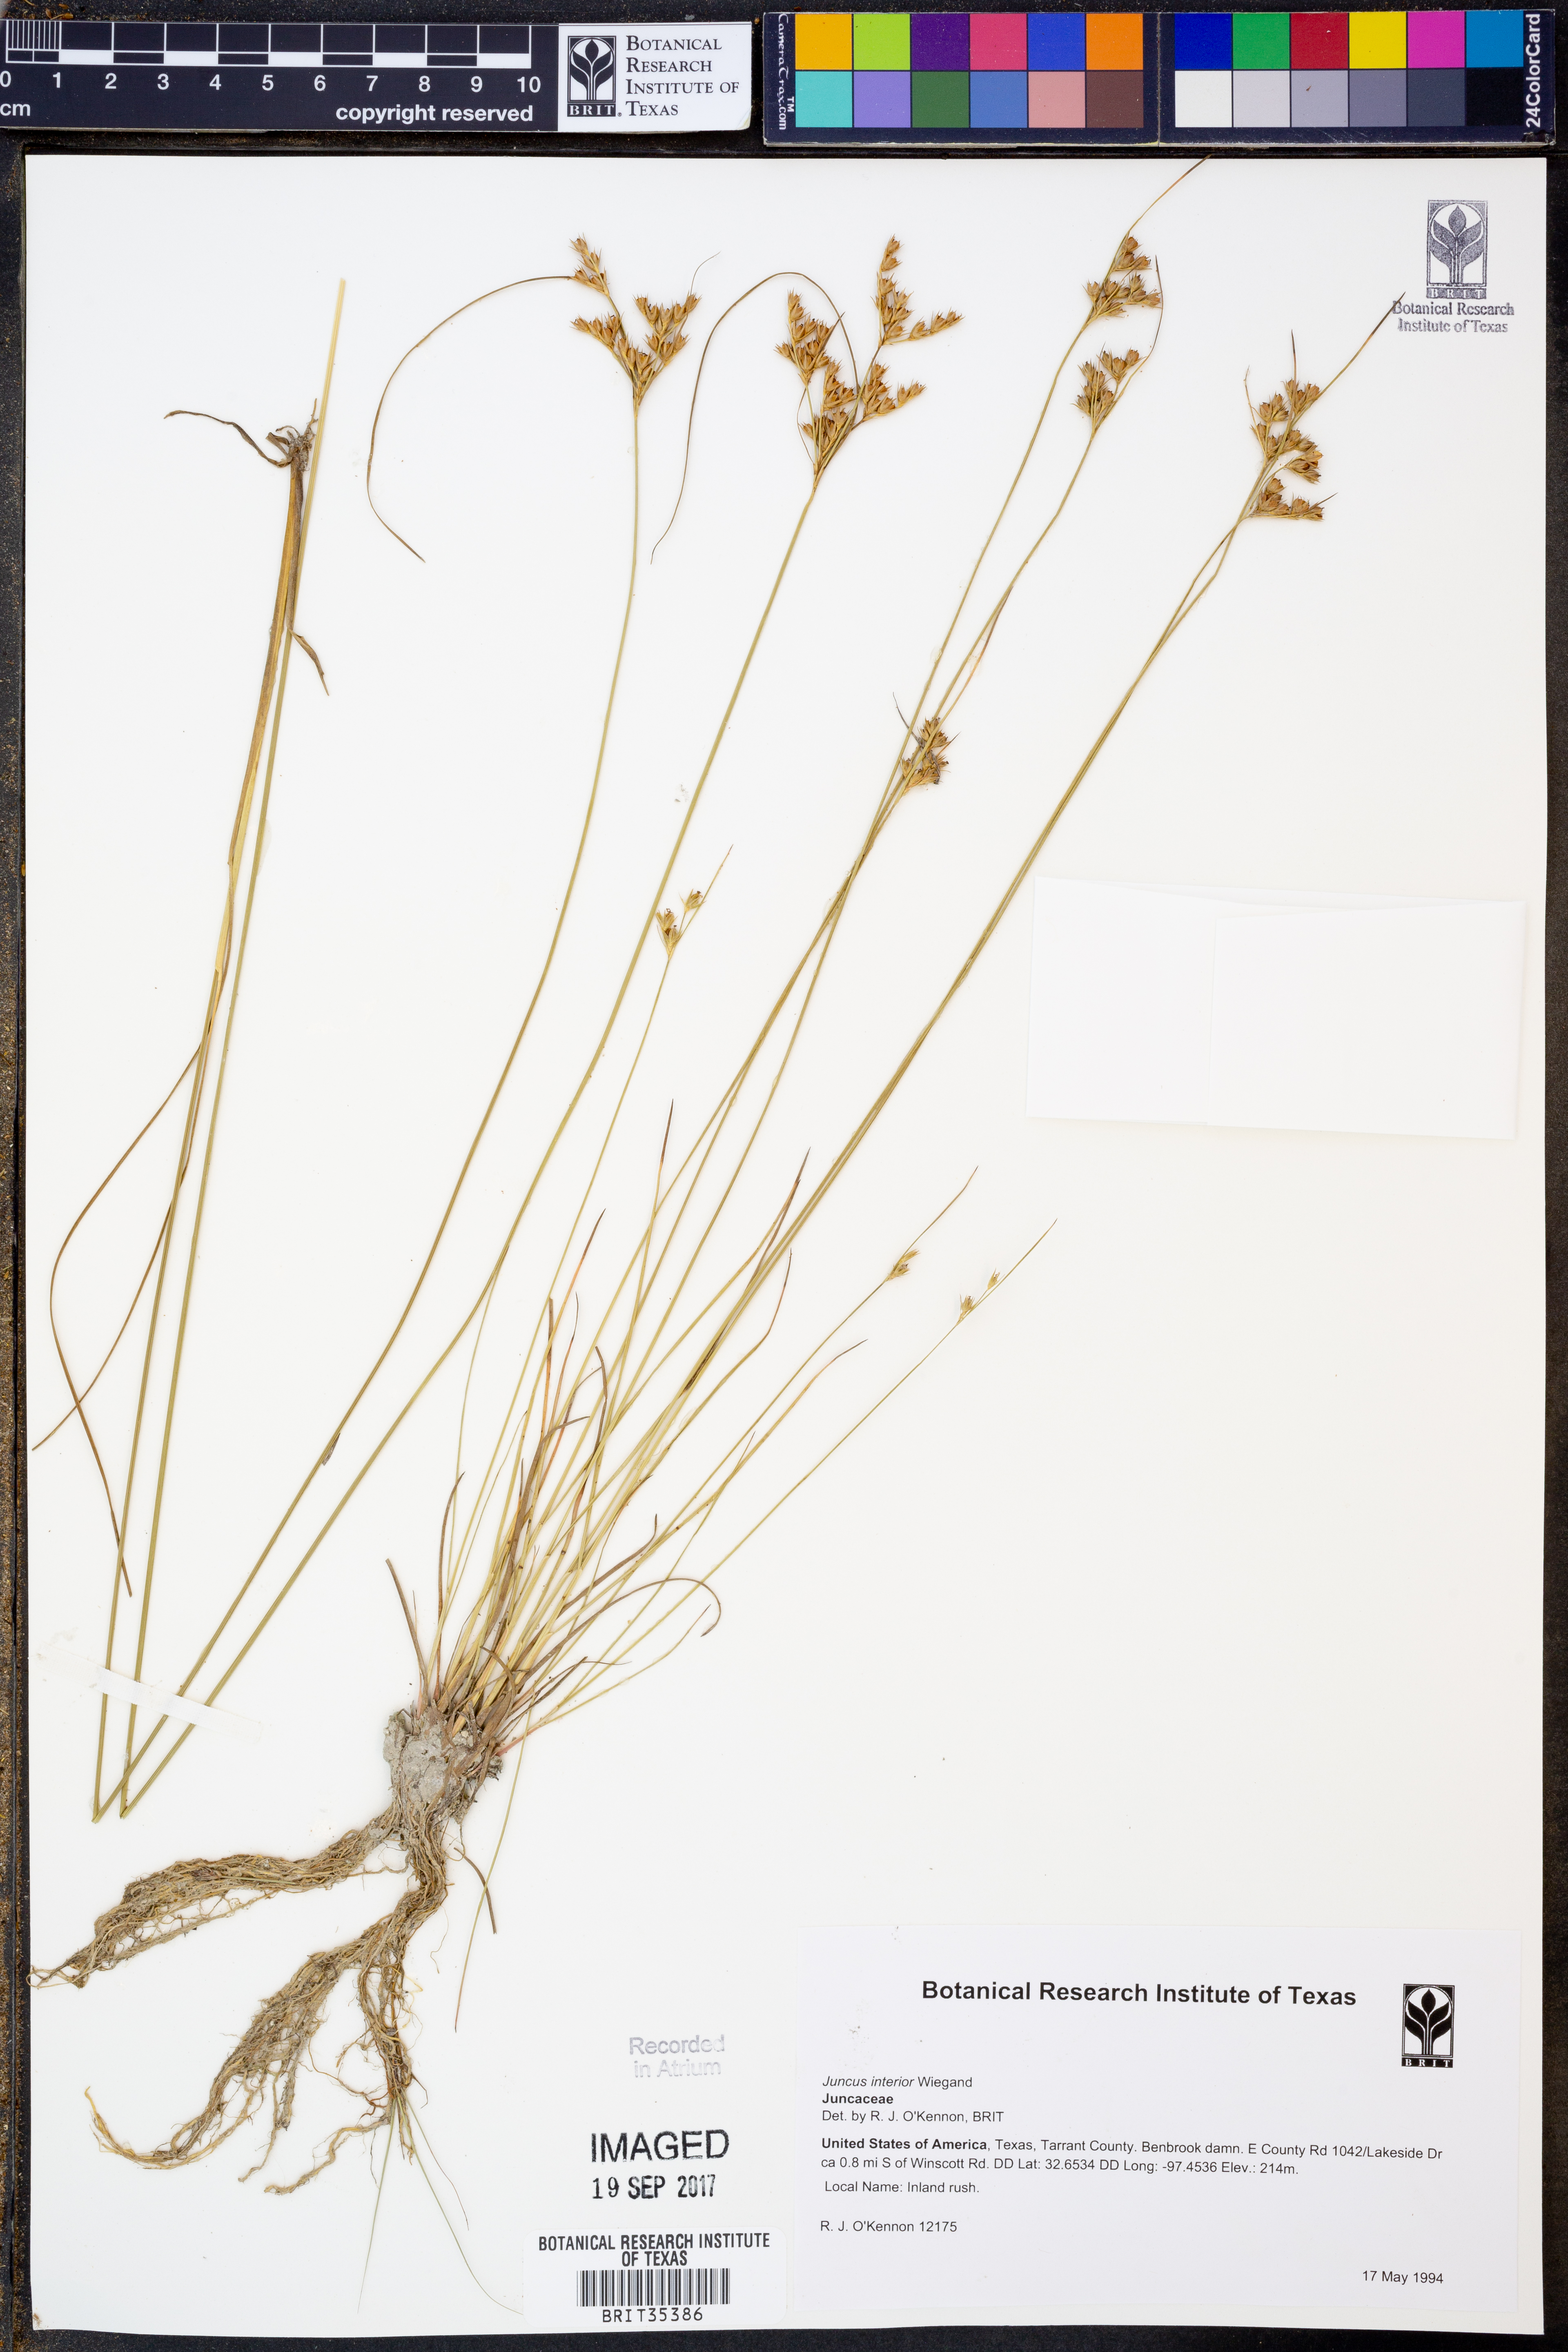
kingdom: Plantae
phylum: Tracheophyta
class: Liliopsida
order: Poales
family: Juncaceae
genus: Juncus
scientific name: Juncus interior
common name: Interior rush
